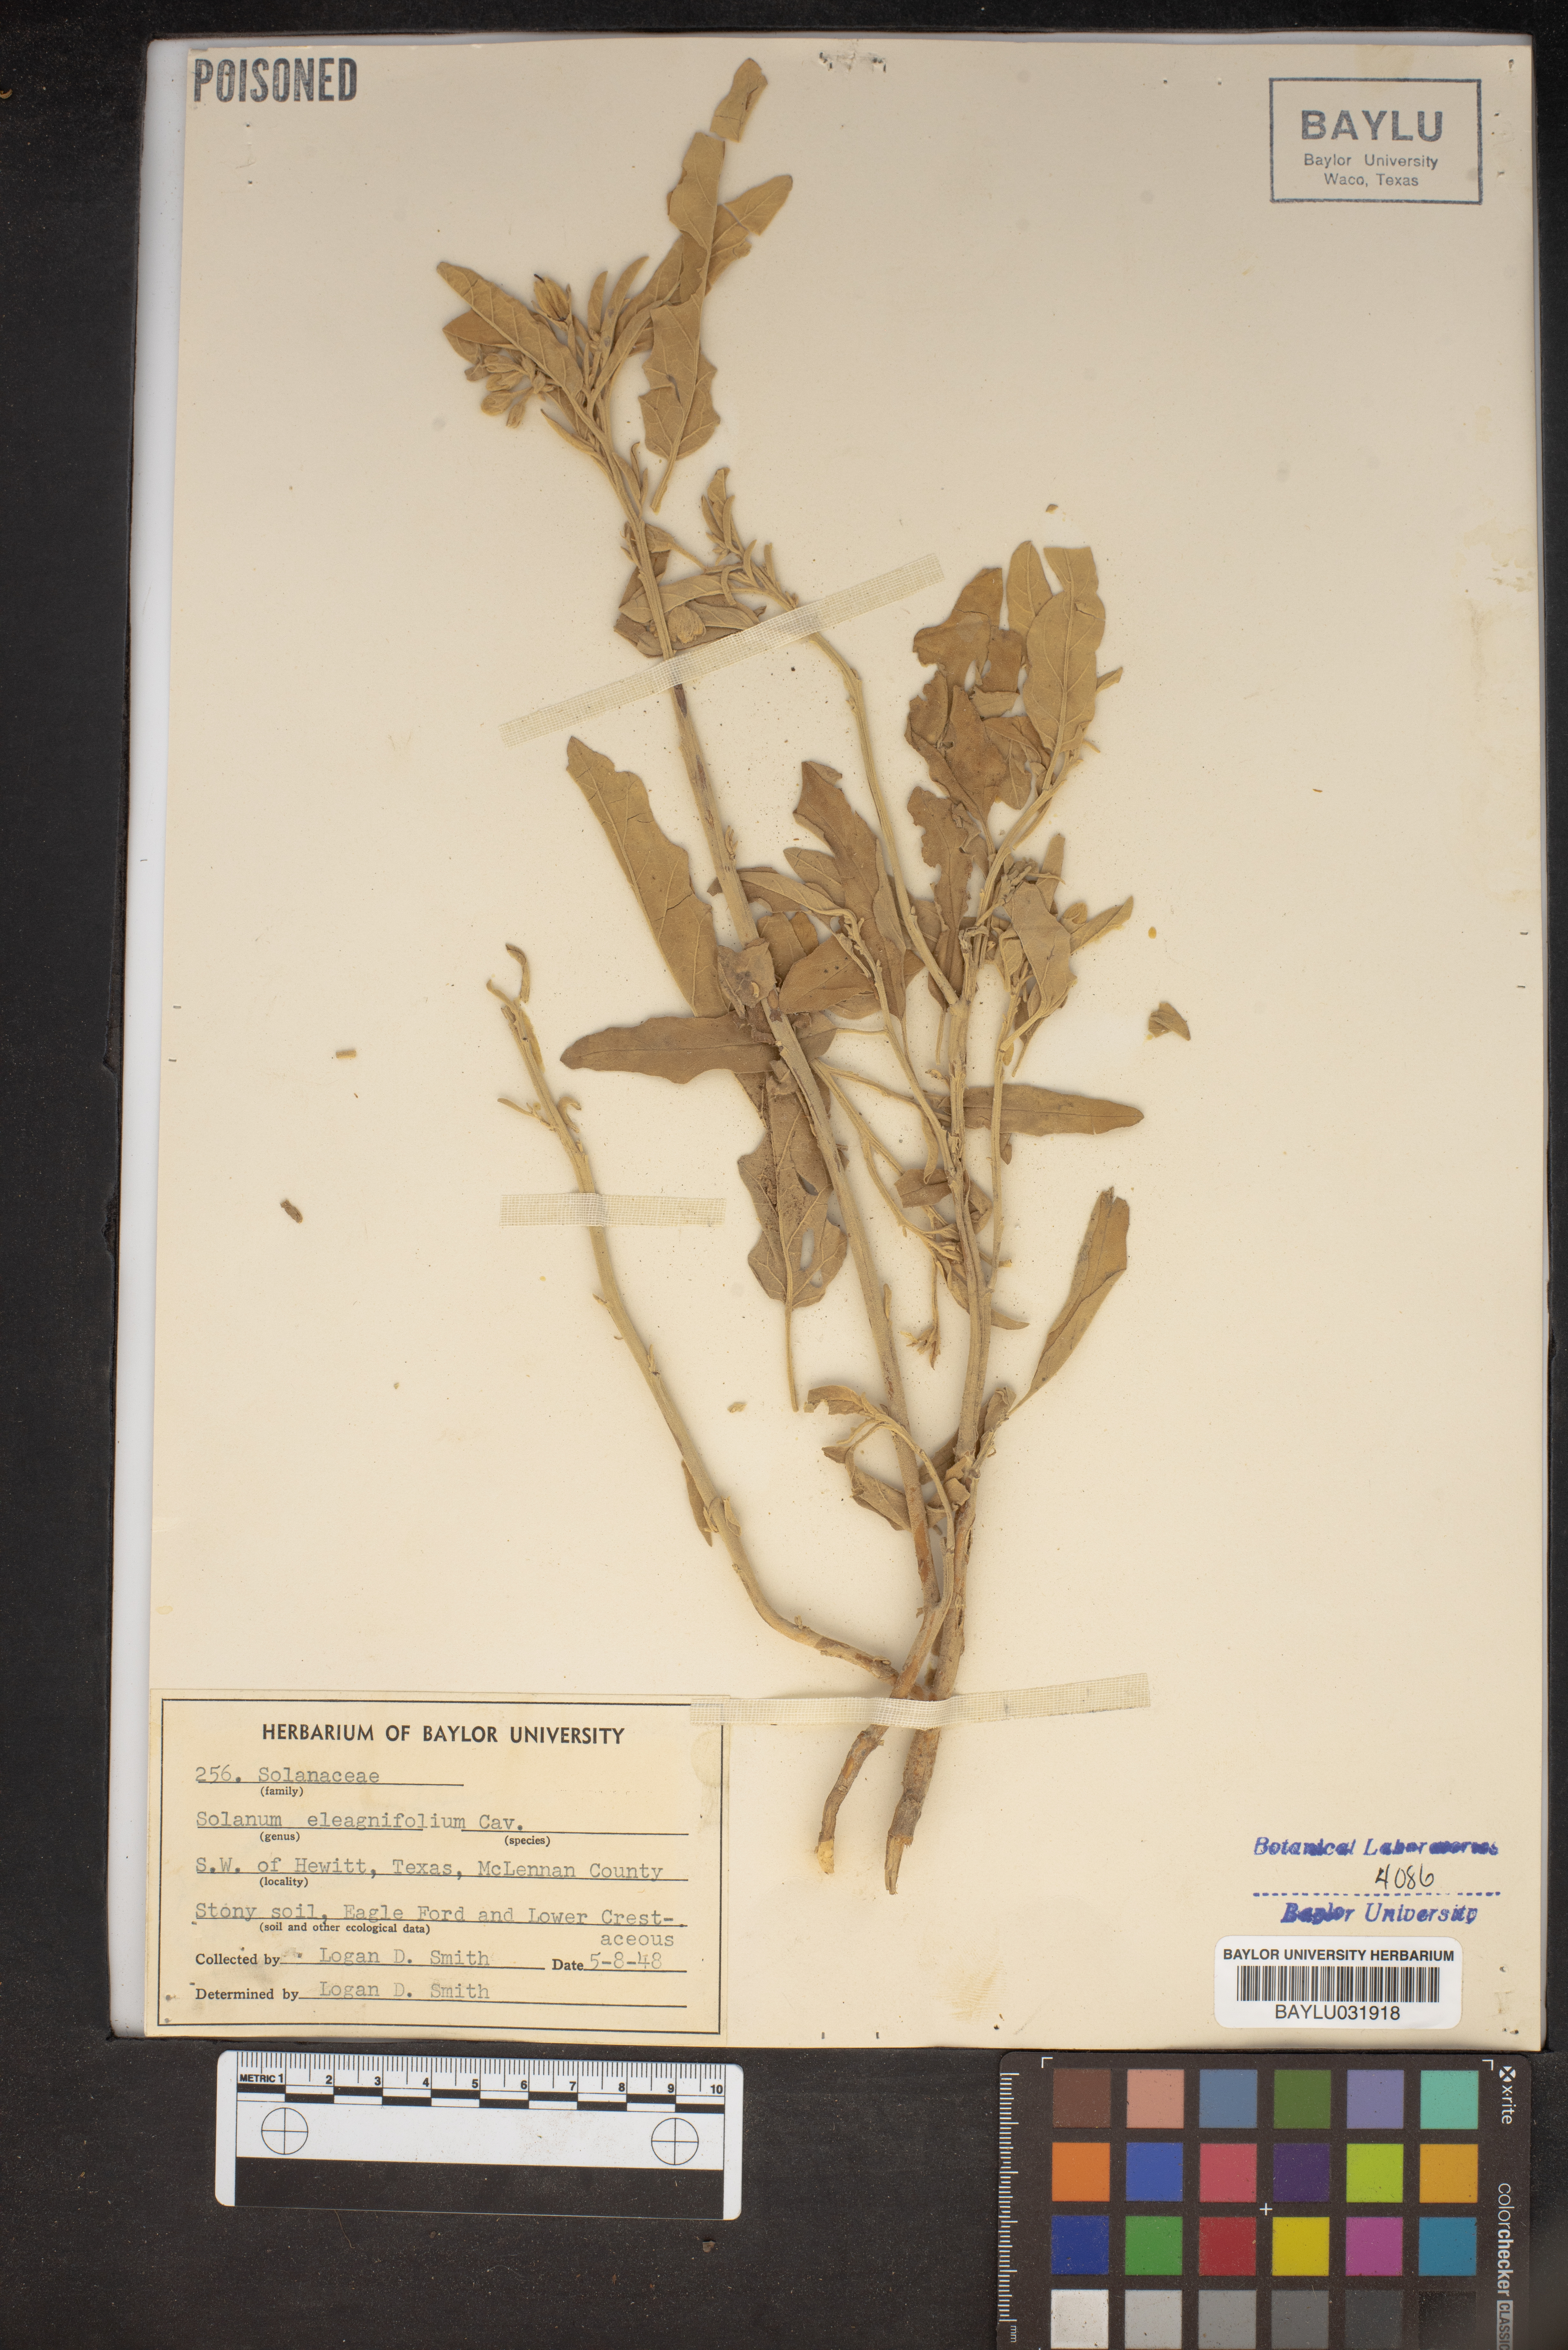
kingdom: Plantae
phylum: Tracheophyta
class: Magnoliopsida
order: Solanales
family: Solanaceae
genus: Solanum
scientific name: Solanum elaeagnifolium
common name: Silverleaf nightshade
